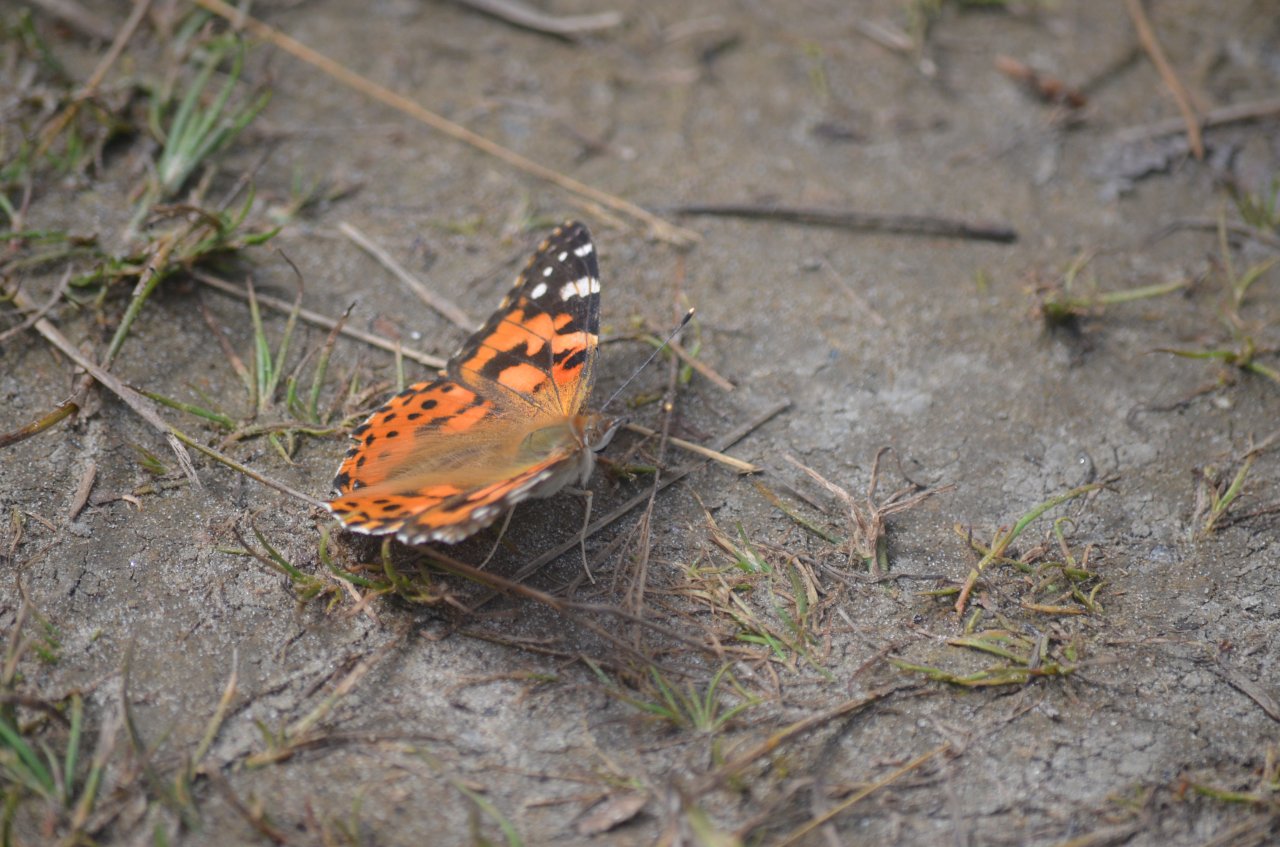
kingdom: Animalia
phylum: Arthropoda
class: Insecta
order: Lepidoptera
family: Nymphalidae
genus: Vanessa
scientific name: Vanessa cardui
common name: Painted Lady
